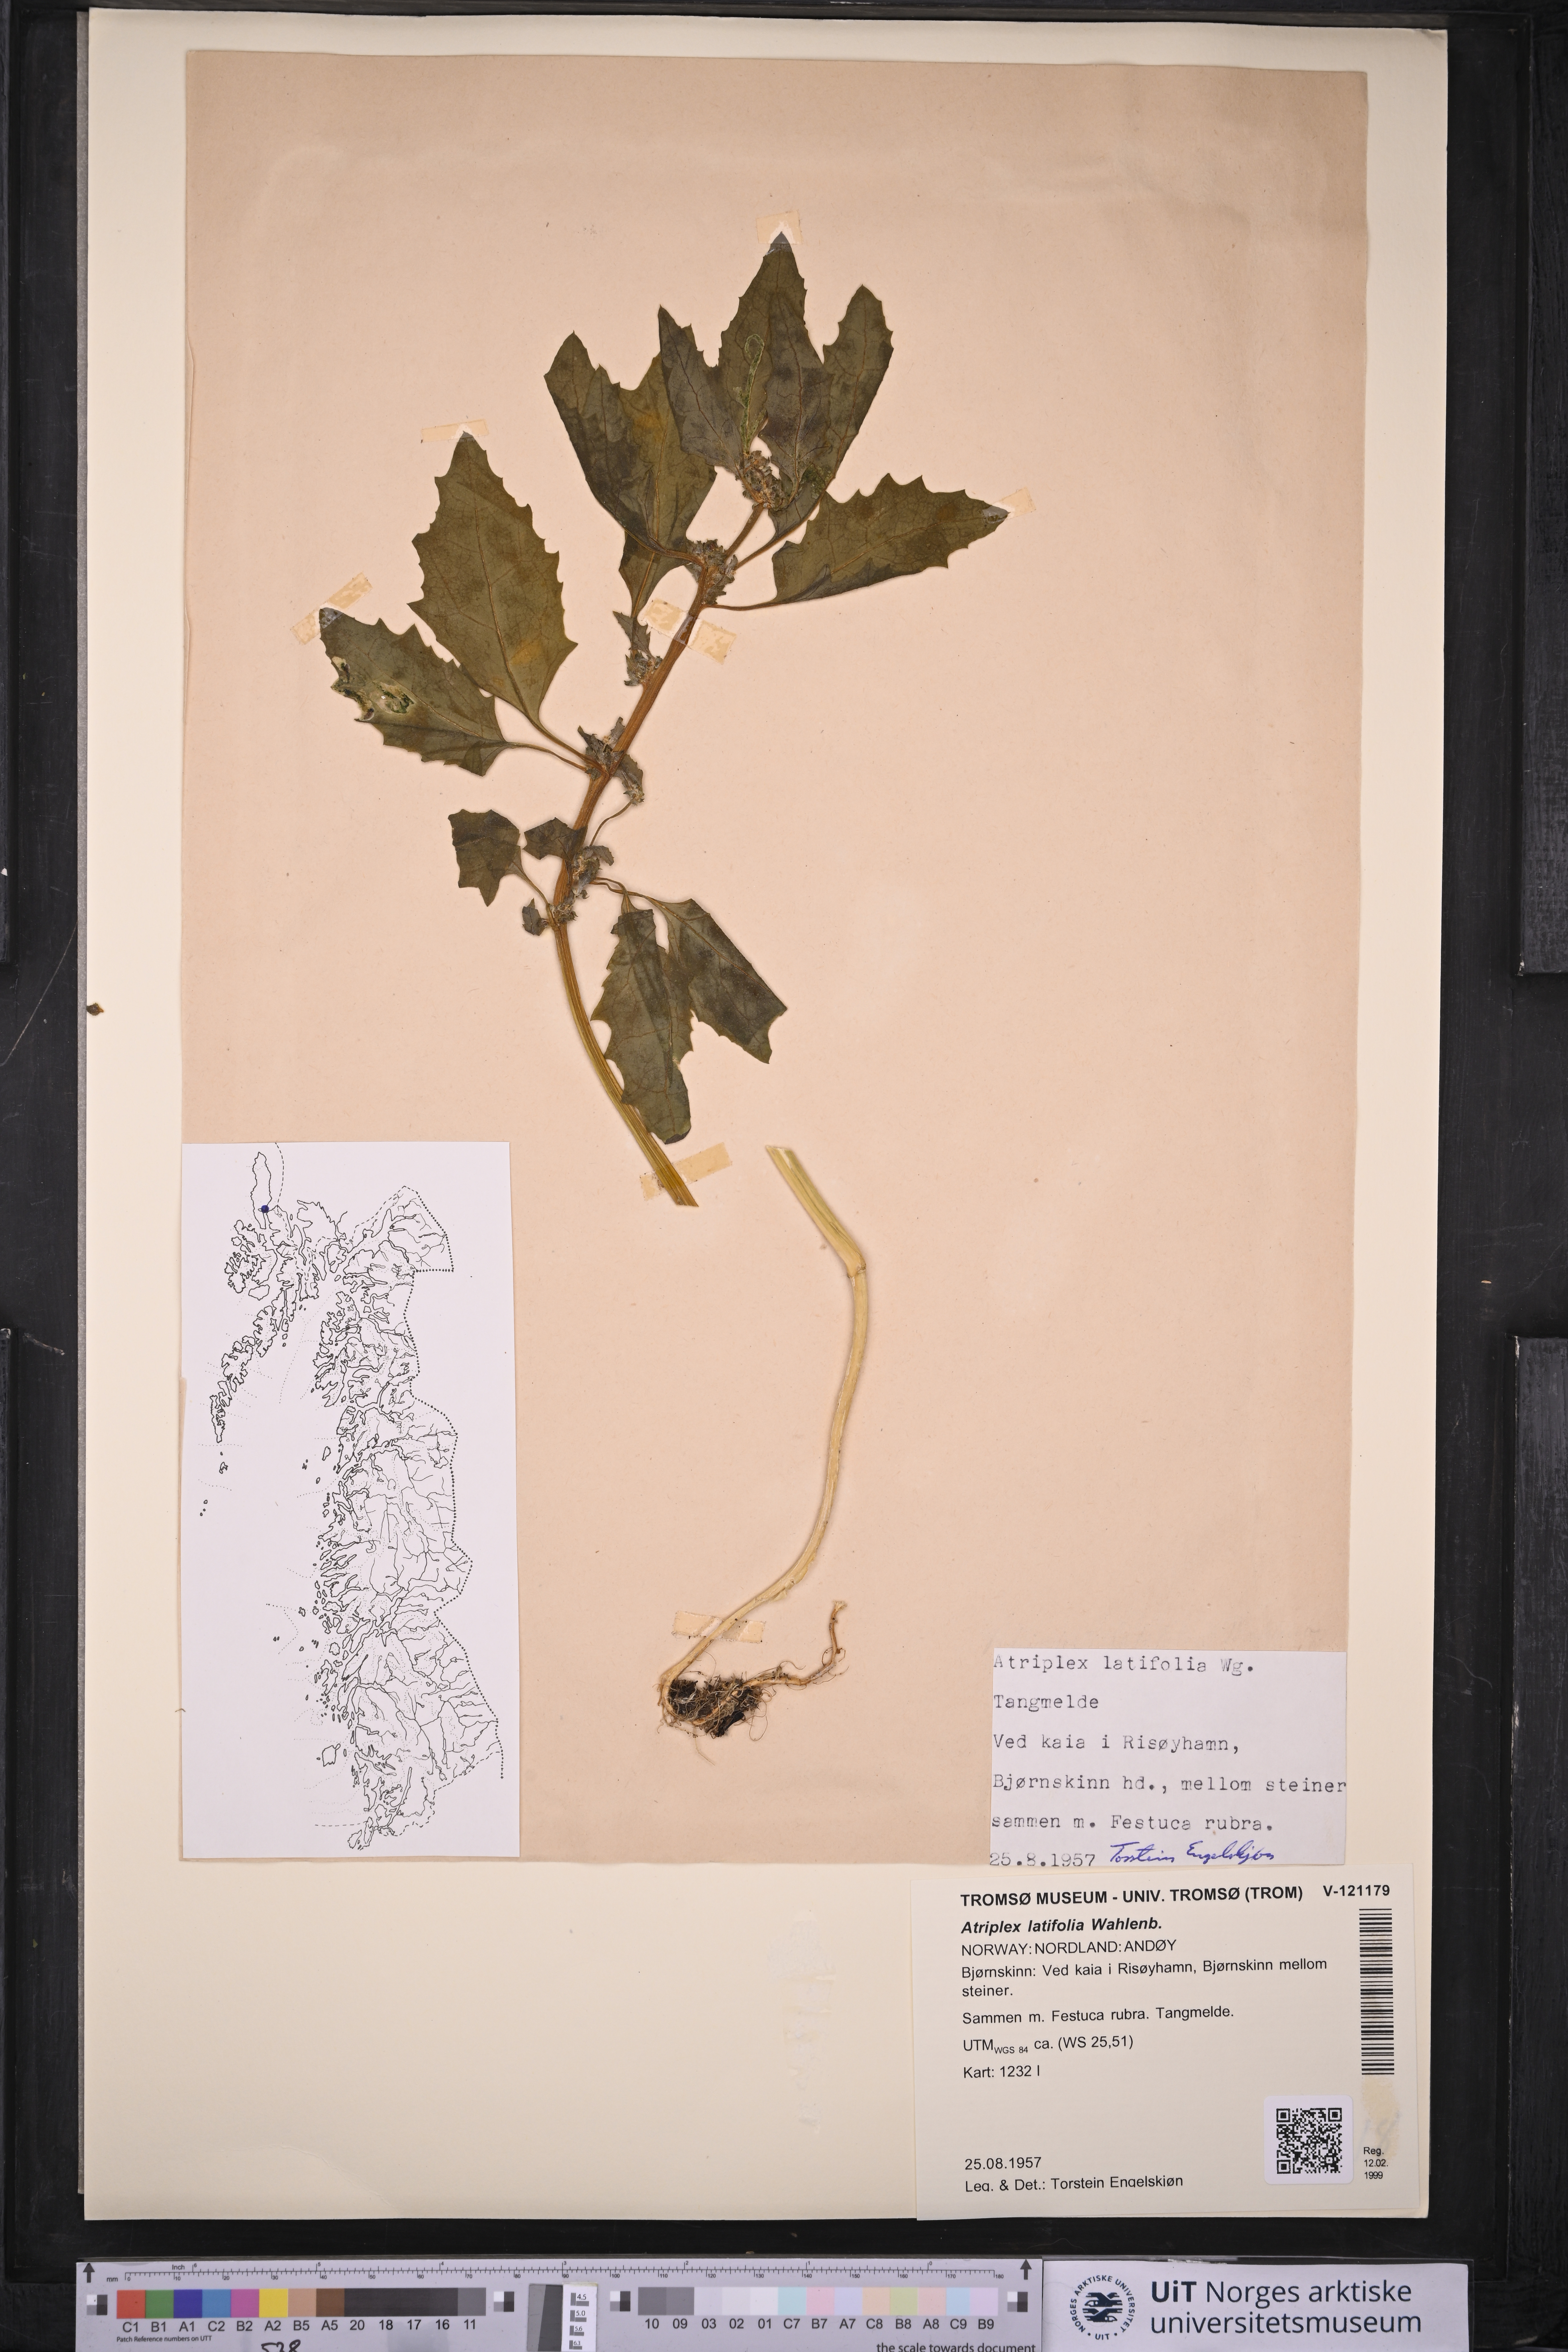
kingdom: Plantae
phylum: Tracheophyta
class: Magnoliopsida
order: Caryophyllales
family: Amaranthaceae
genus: Atriplex
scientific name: Atriplex prostrata
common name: Spear-leaved orache
